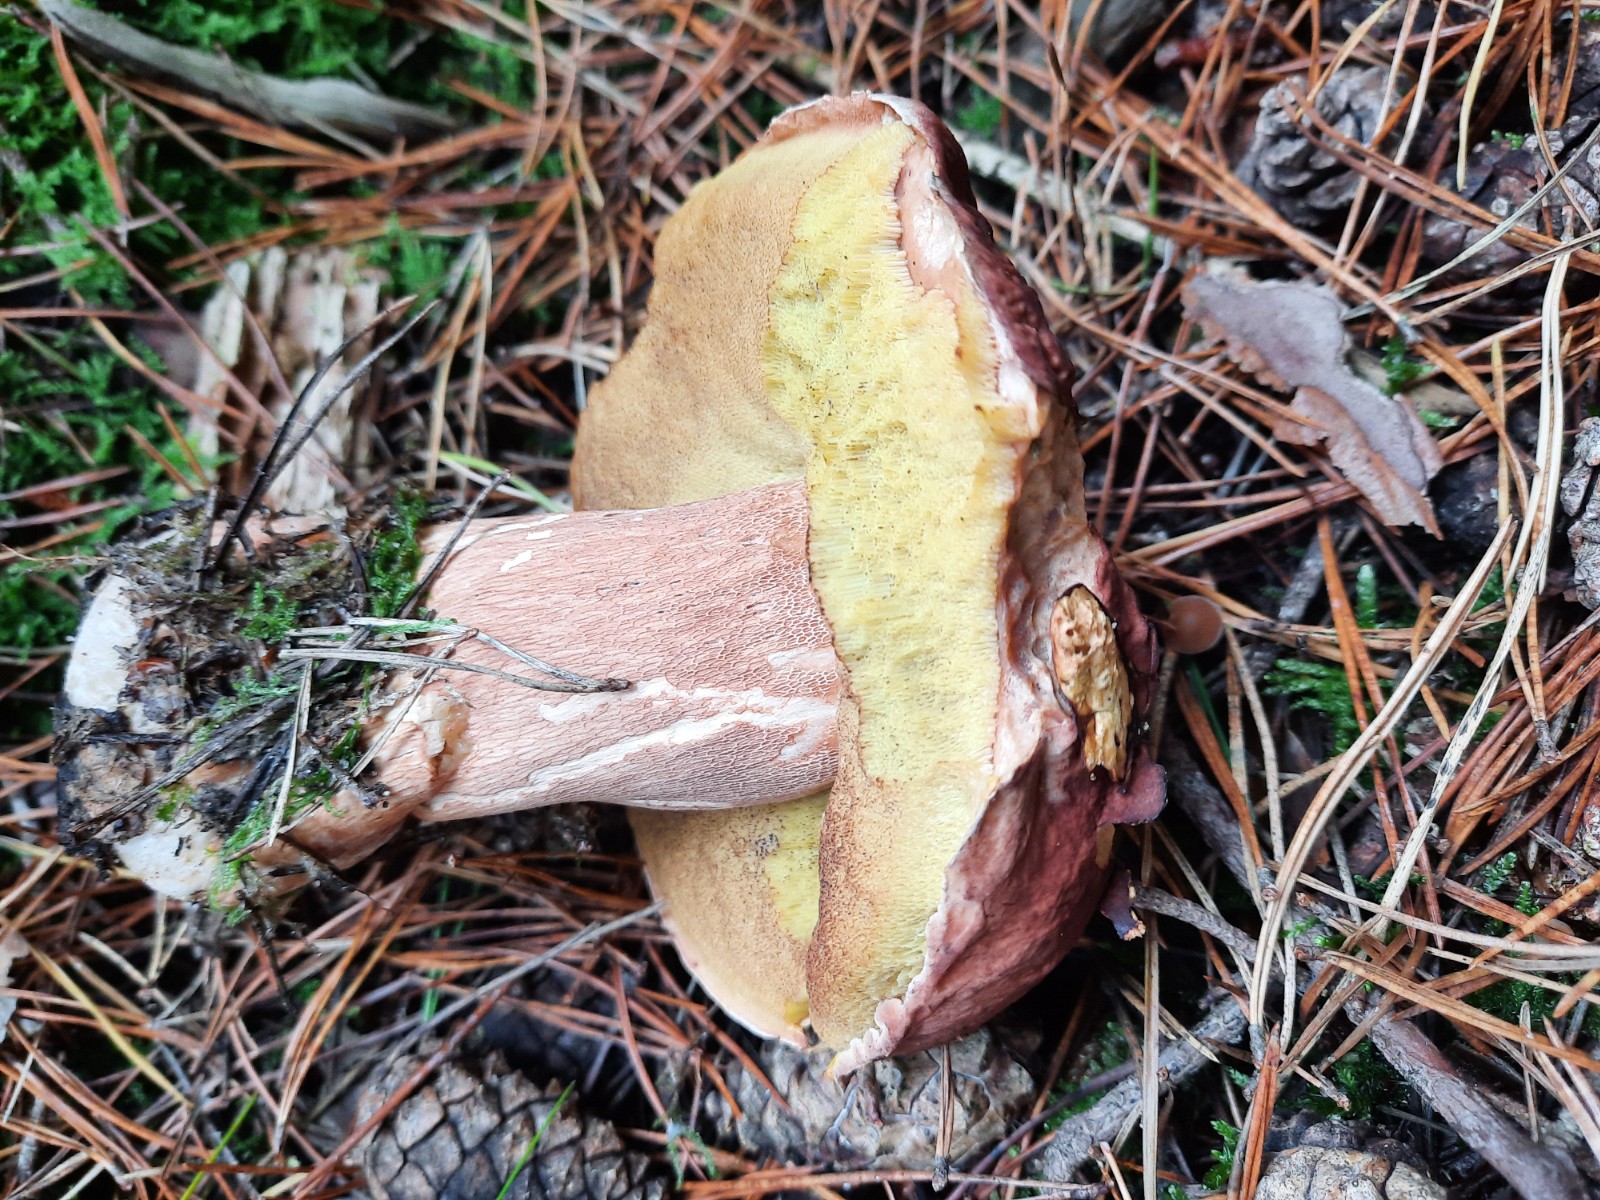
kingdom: Fungi
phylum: Basidiomycota
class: Agaricomycetes
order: Boletales
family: Boletaceae
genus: Boletus
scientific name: Boletus pinophilus
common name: rødbrun rørhat
